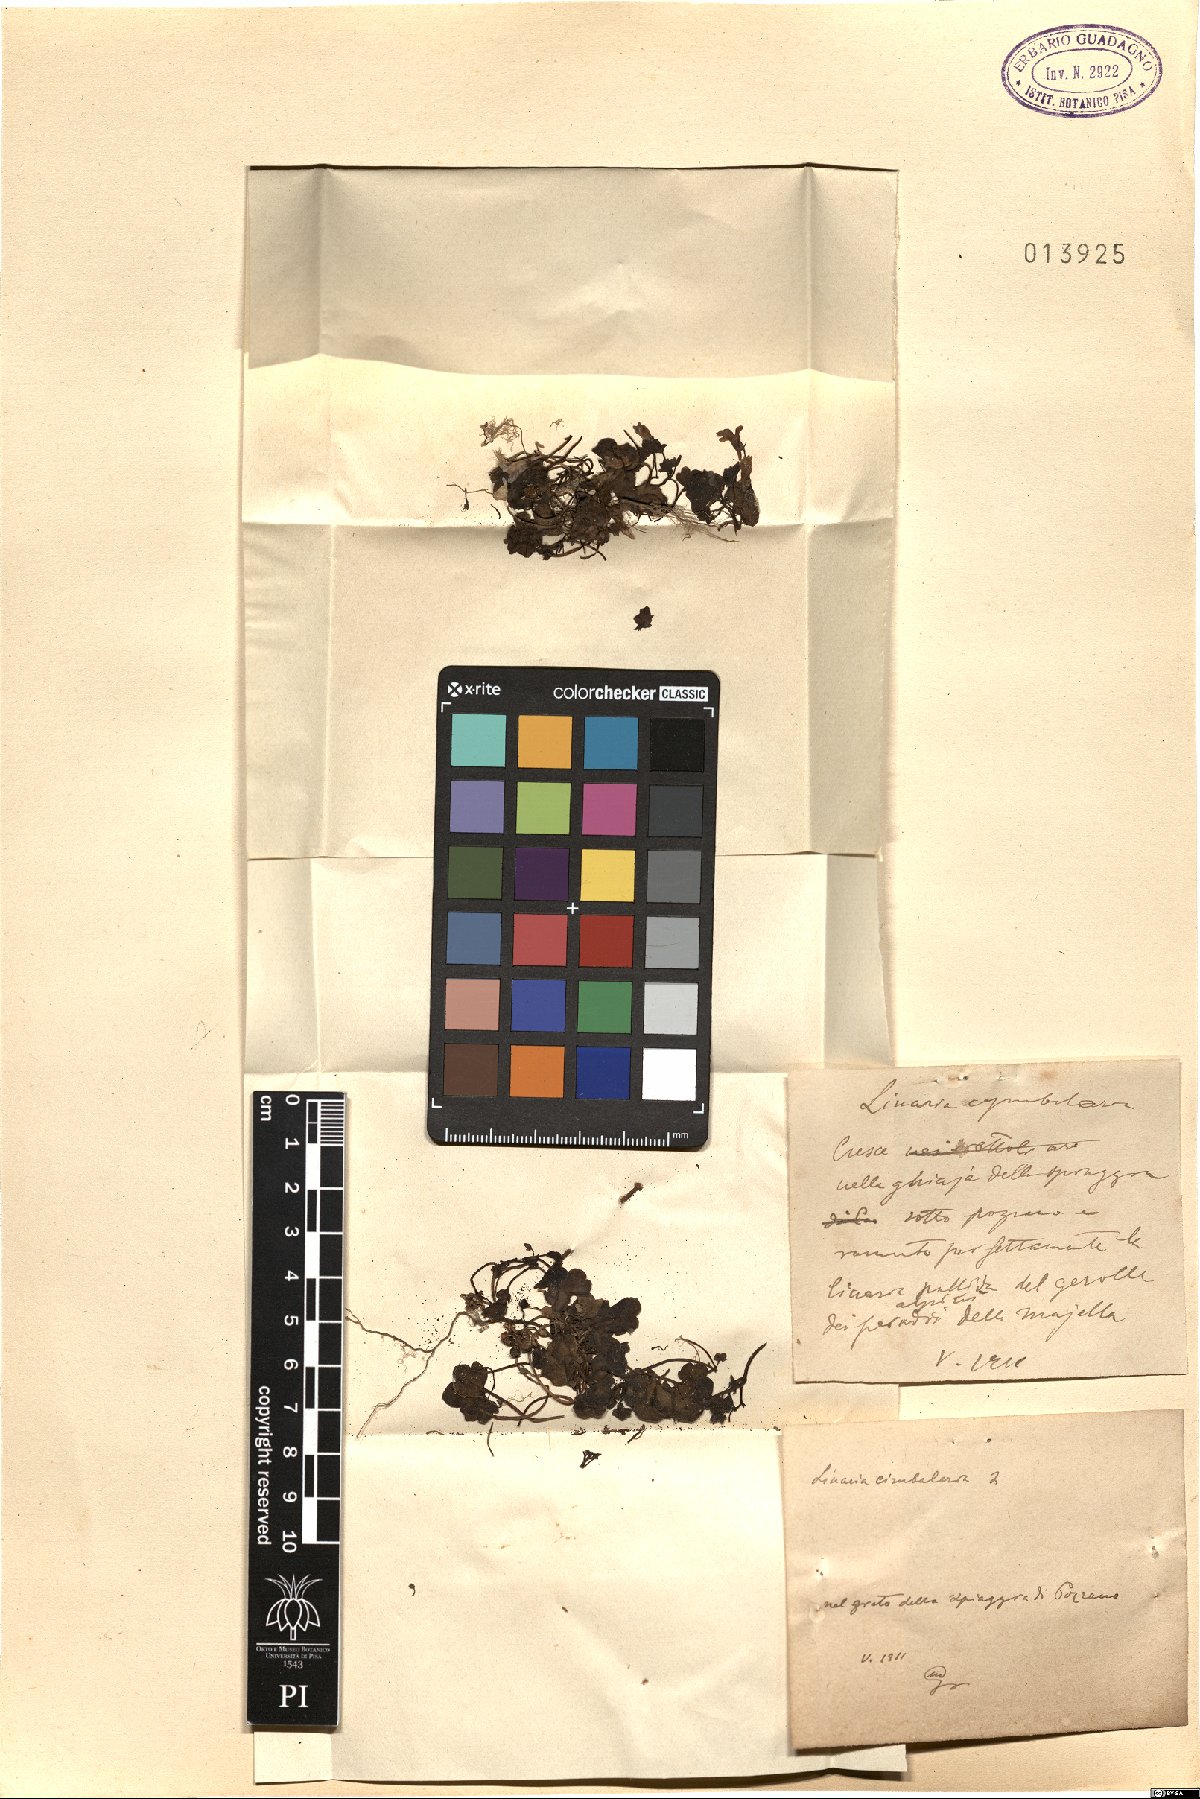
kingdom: Plantae
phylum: Tracheophyta
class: Magnoliopsida
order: Lamiales
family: Plantaginaceae
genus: Cymbalaria
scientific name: Cymbalaria muralis
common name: Ivy-leaved toadflax
